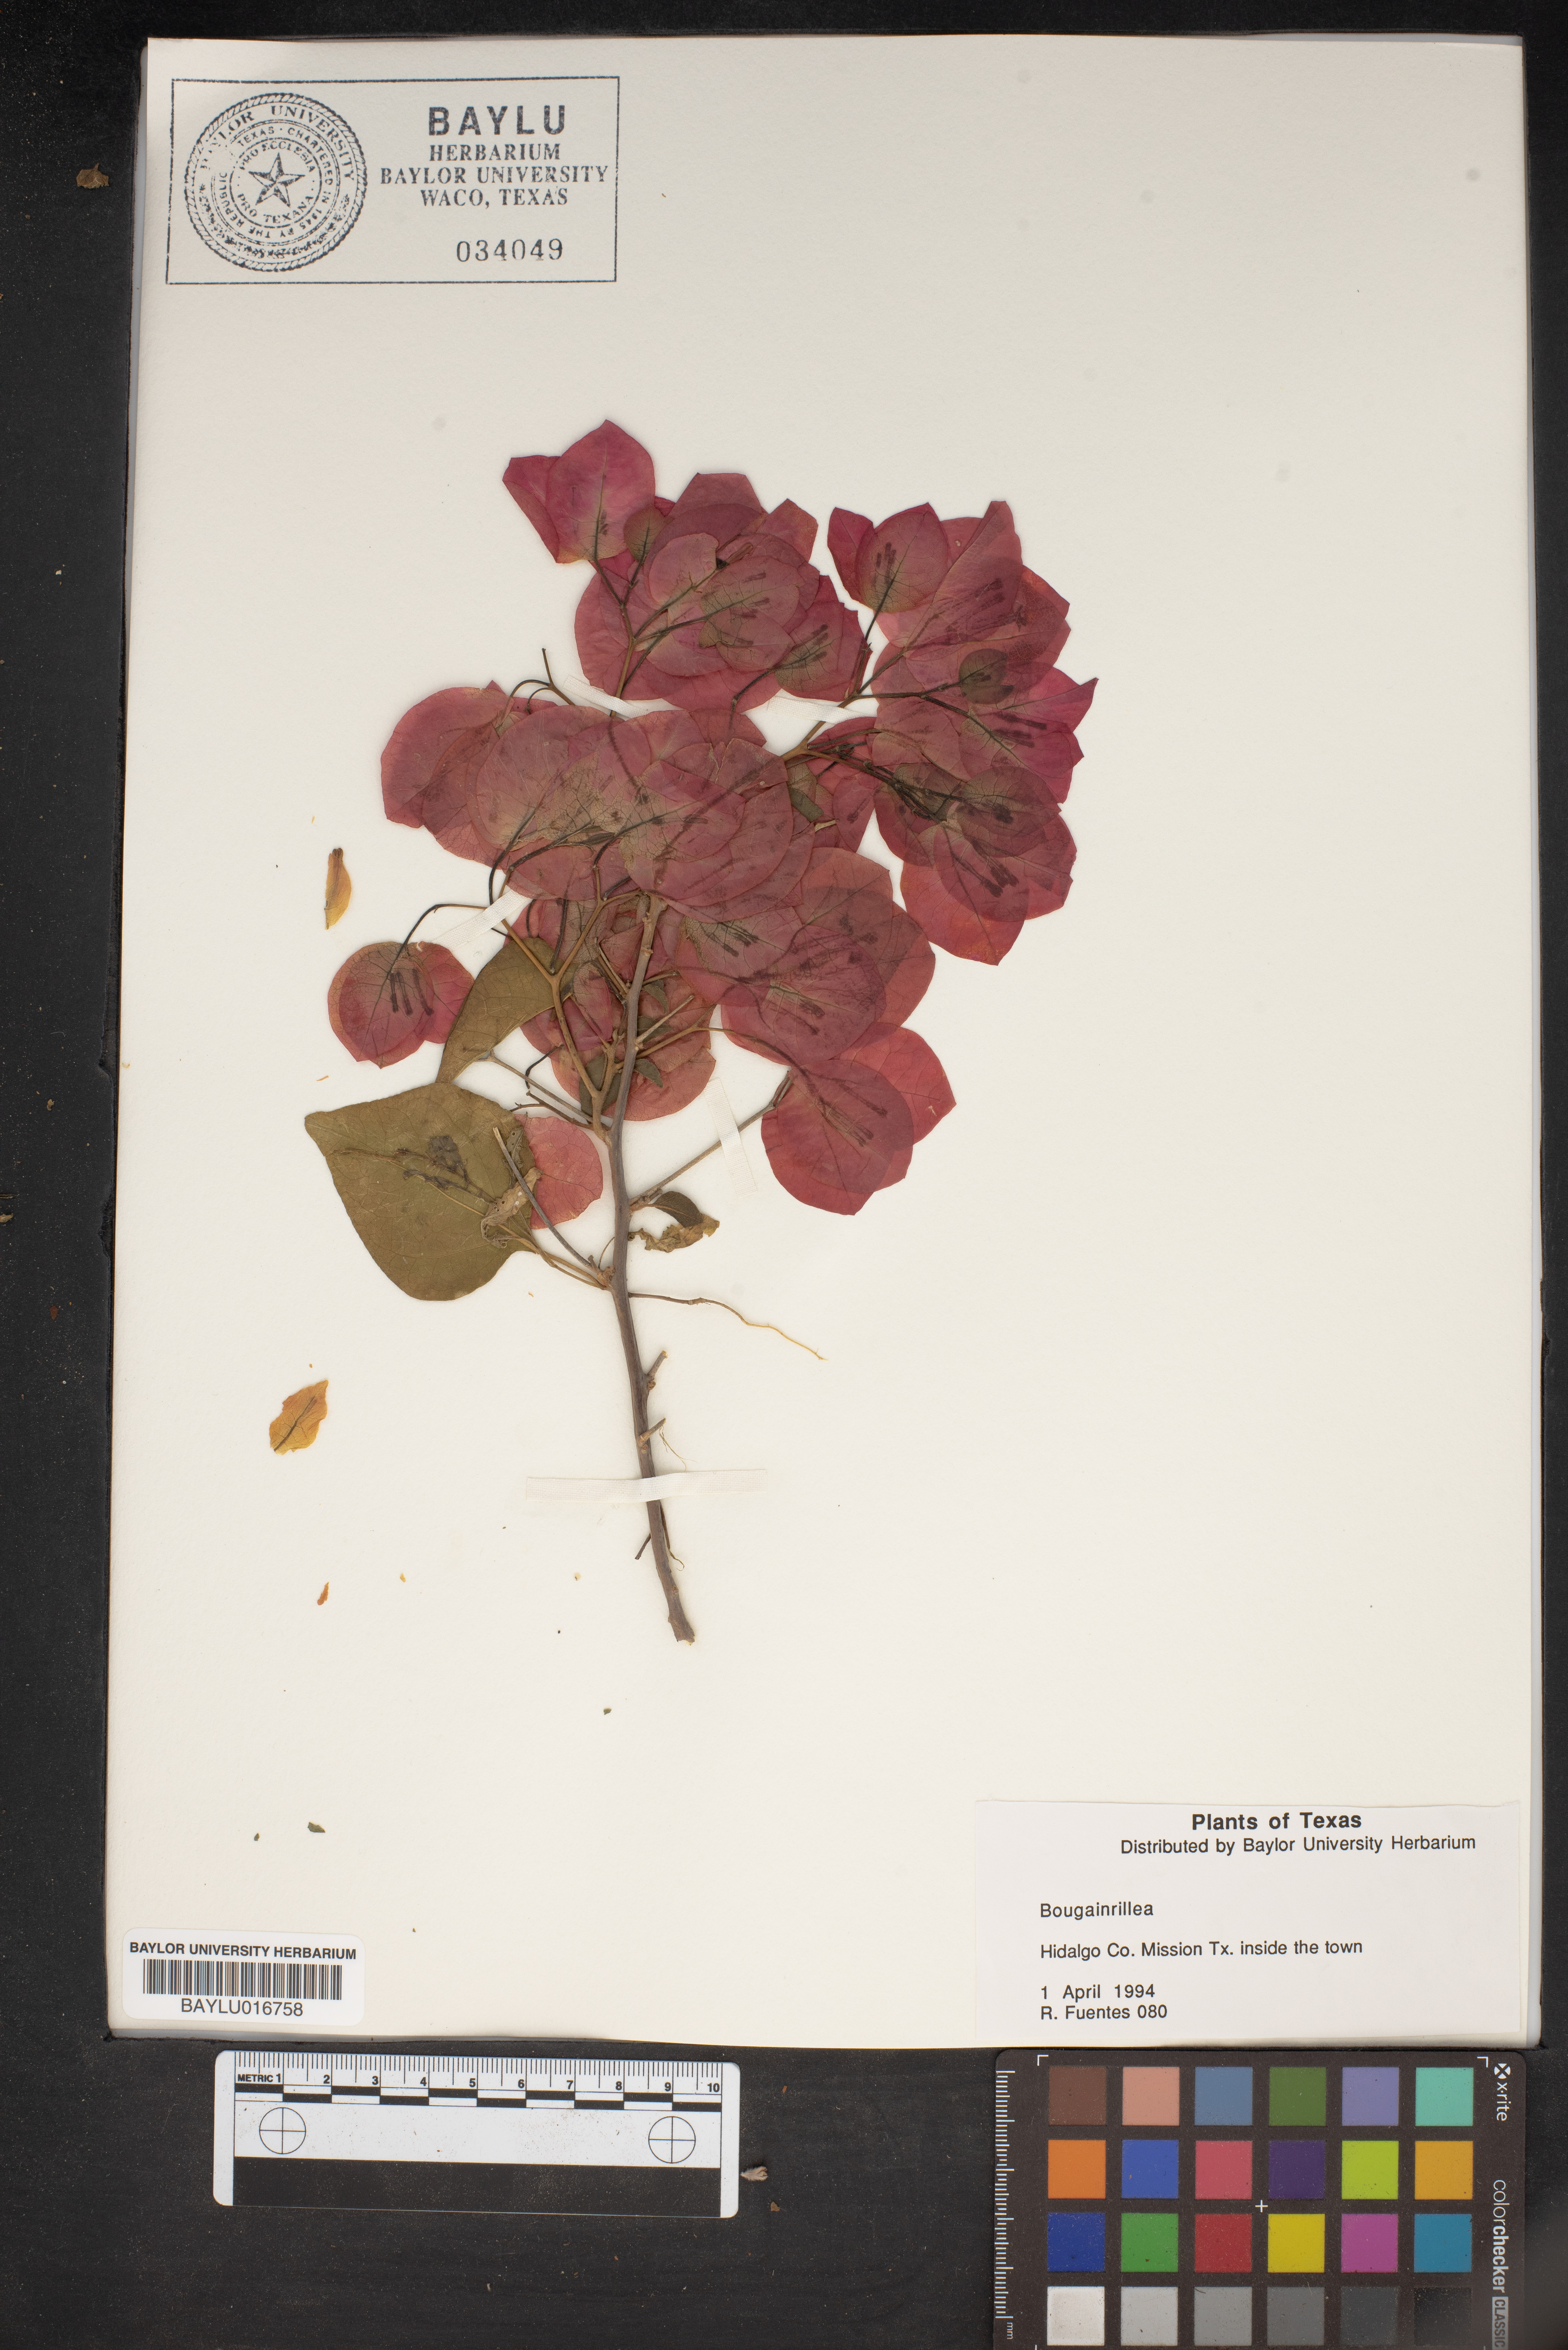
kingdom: Plantae
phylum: Tracheophyta
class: Magnoliopsida
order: Caryophyllales
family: Nyctaginaceae
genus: Bougainvillea
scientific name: Bougainvillea
